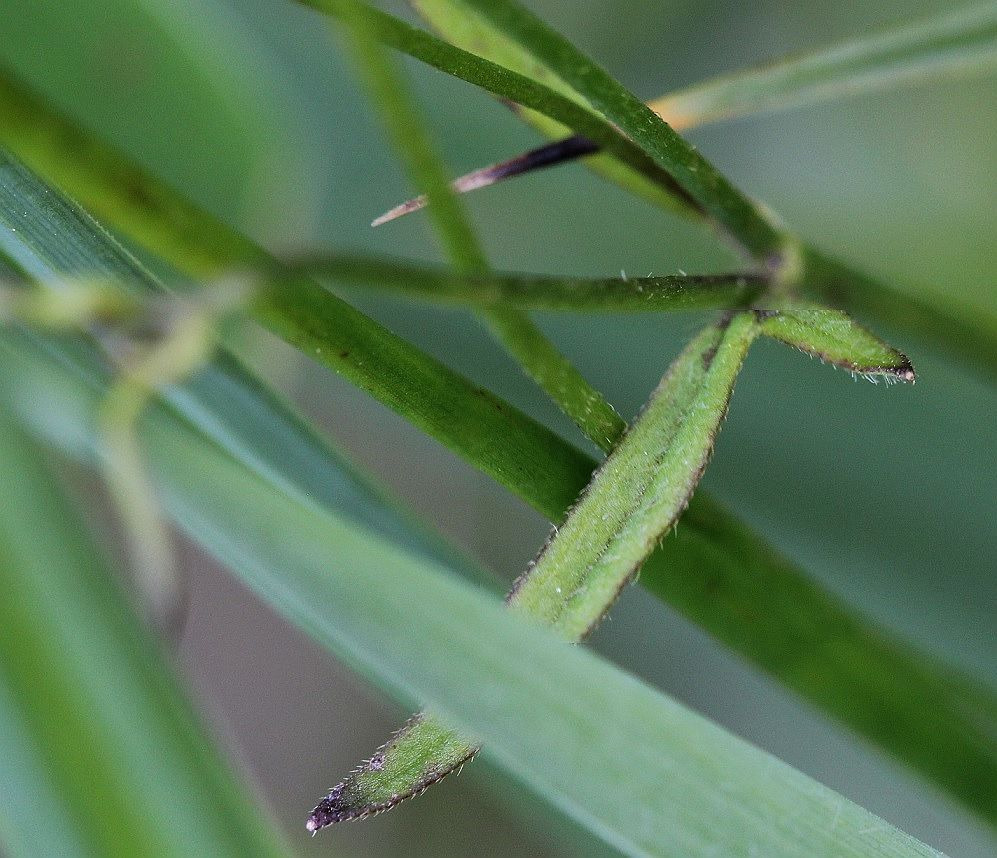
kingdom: Plantae
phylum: Tracheophyta
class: Magnoliopsida
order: Ranunculales
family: Ranunculaceae
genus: Ranunculus
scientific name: Ranunculus
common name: Ranunkelslægten
